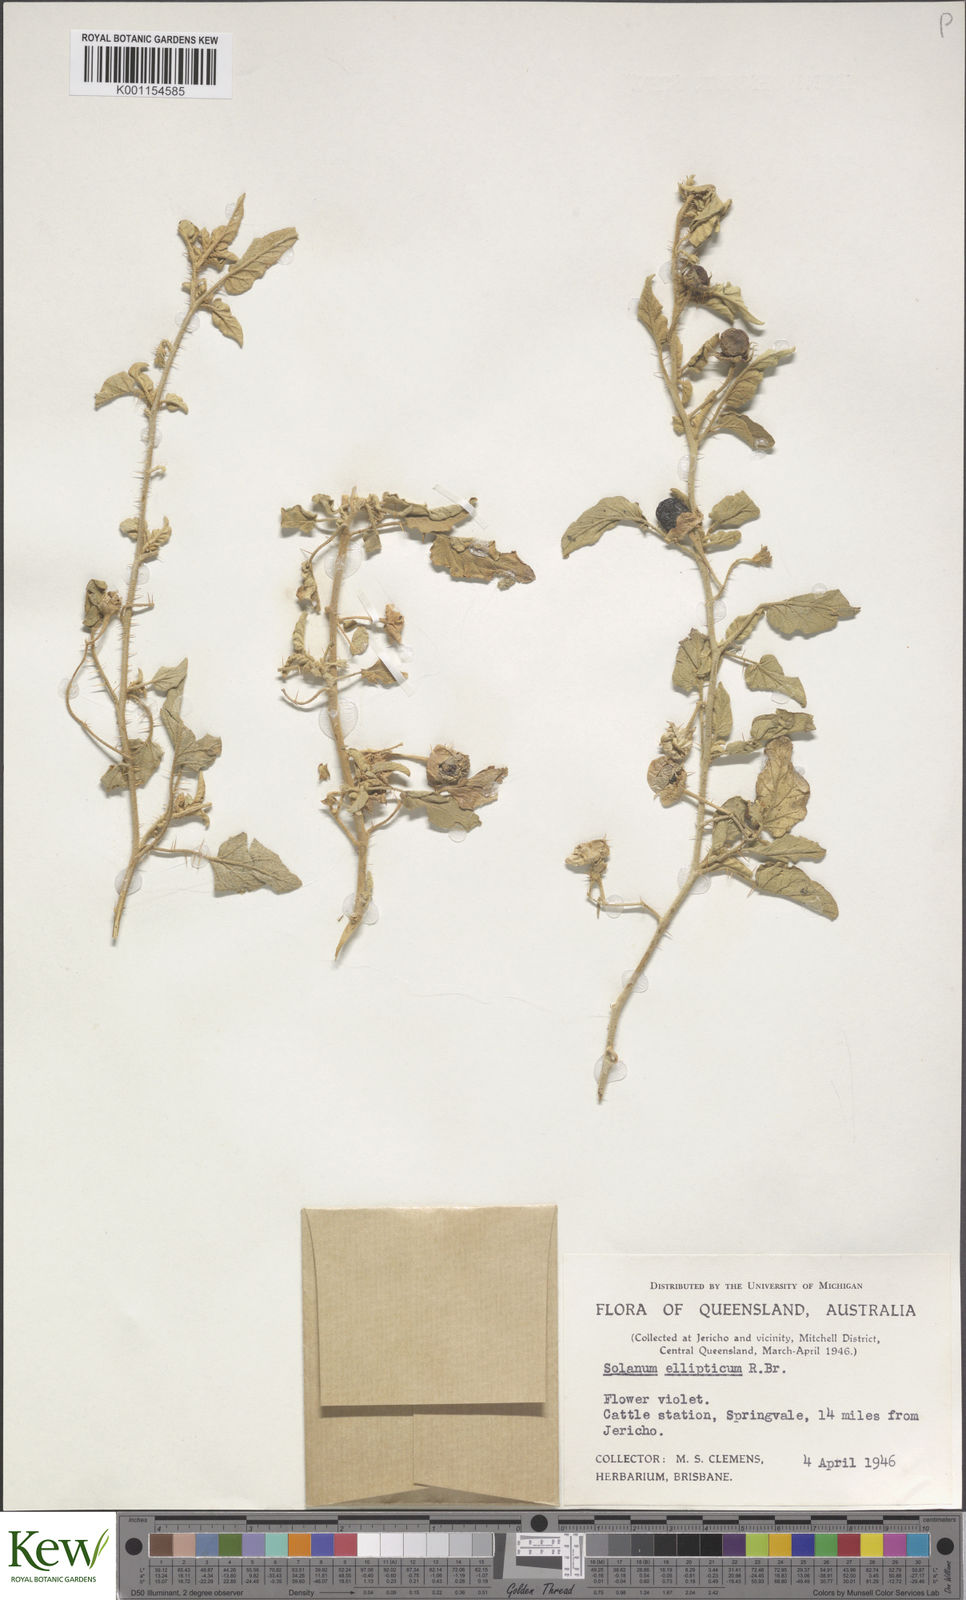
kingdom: Plantae
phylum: Tracheophyta
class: Magnoliopsida
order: Solanales
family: Solanaceae
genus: Solanum
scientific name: Solanum ellipticum
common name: Potato-bush
